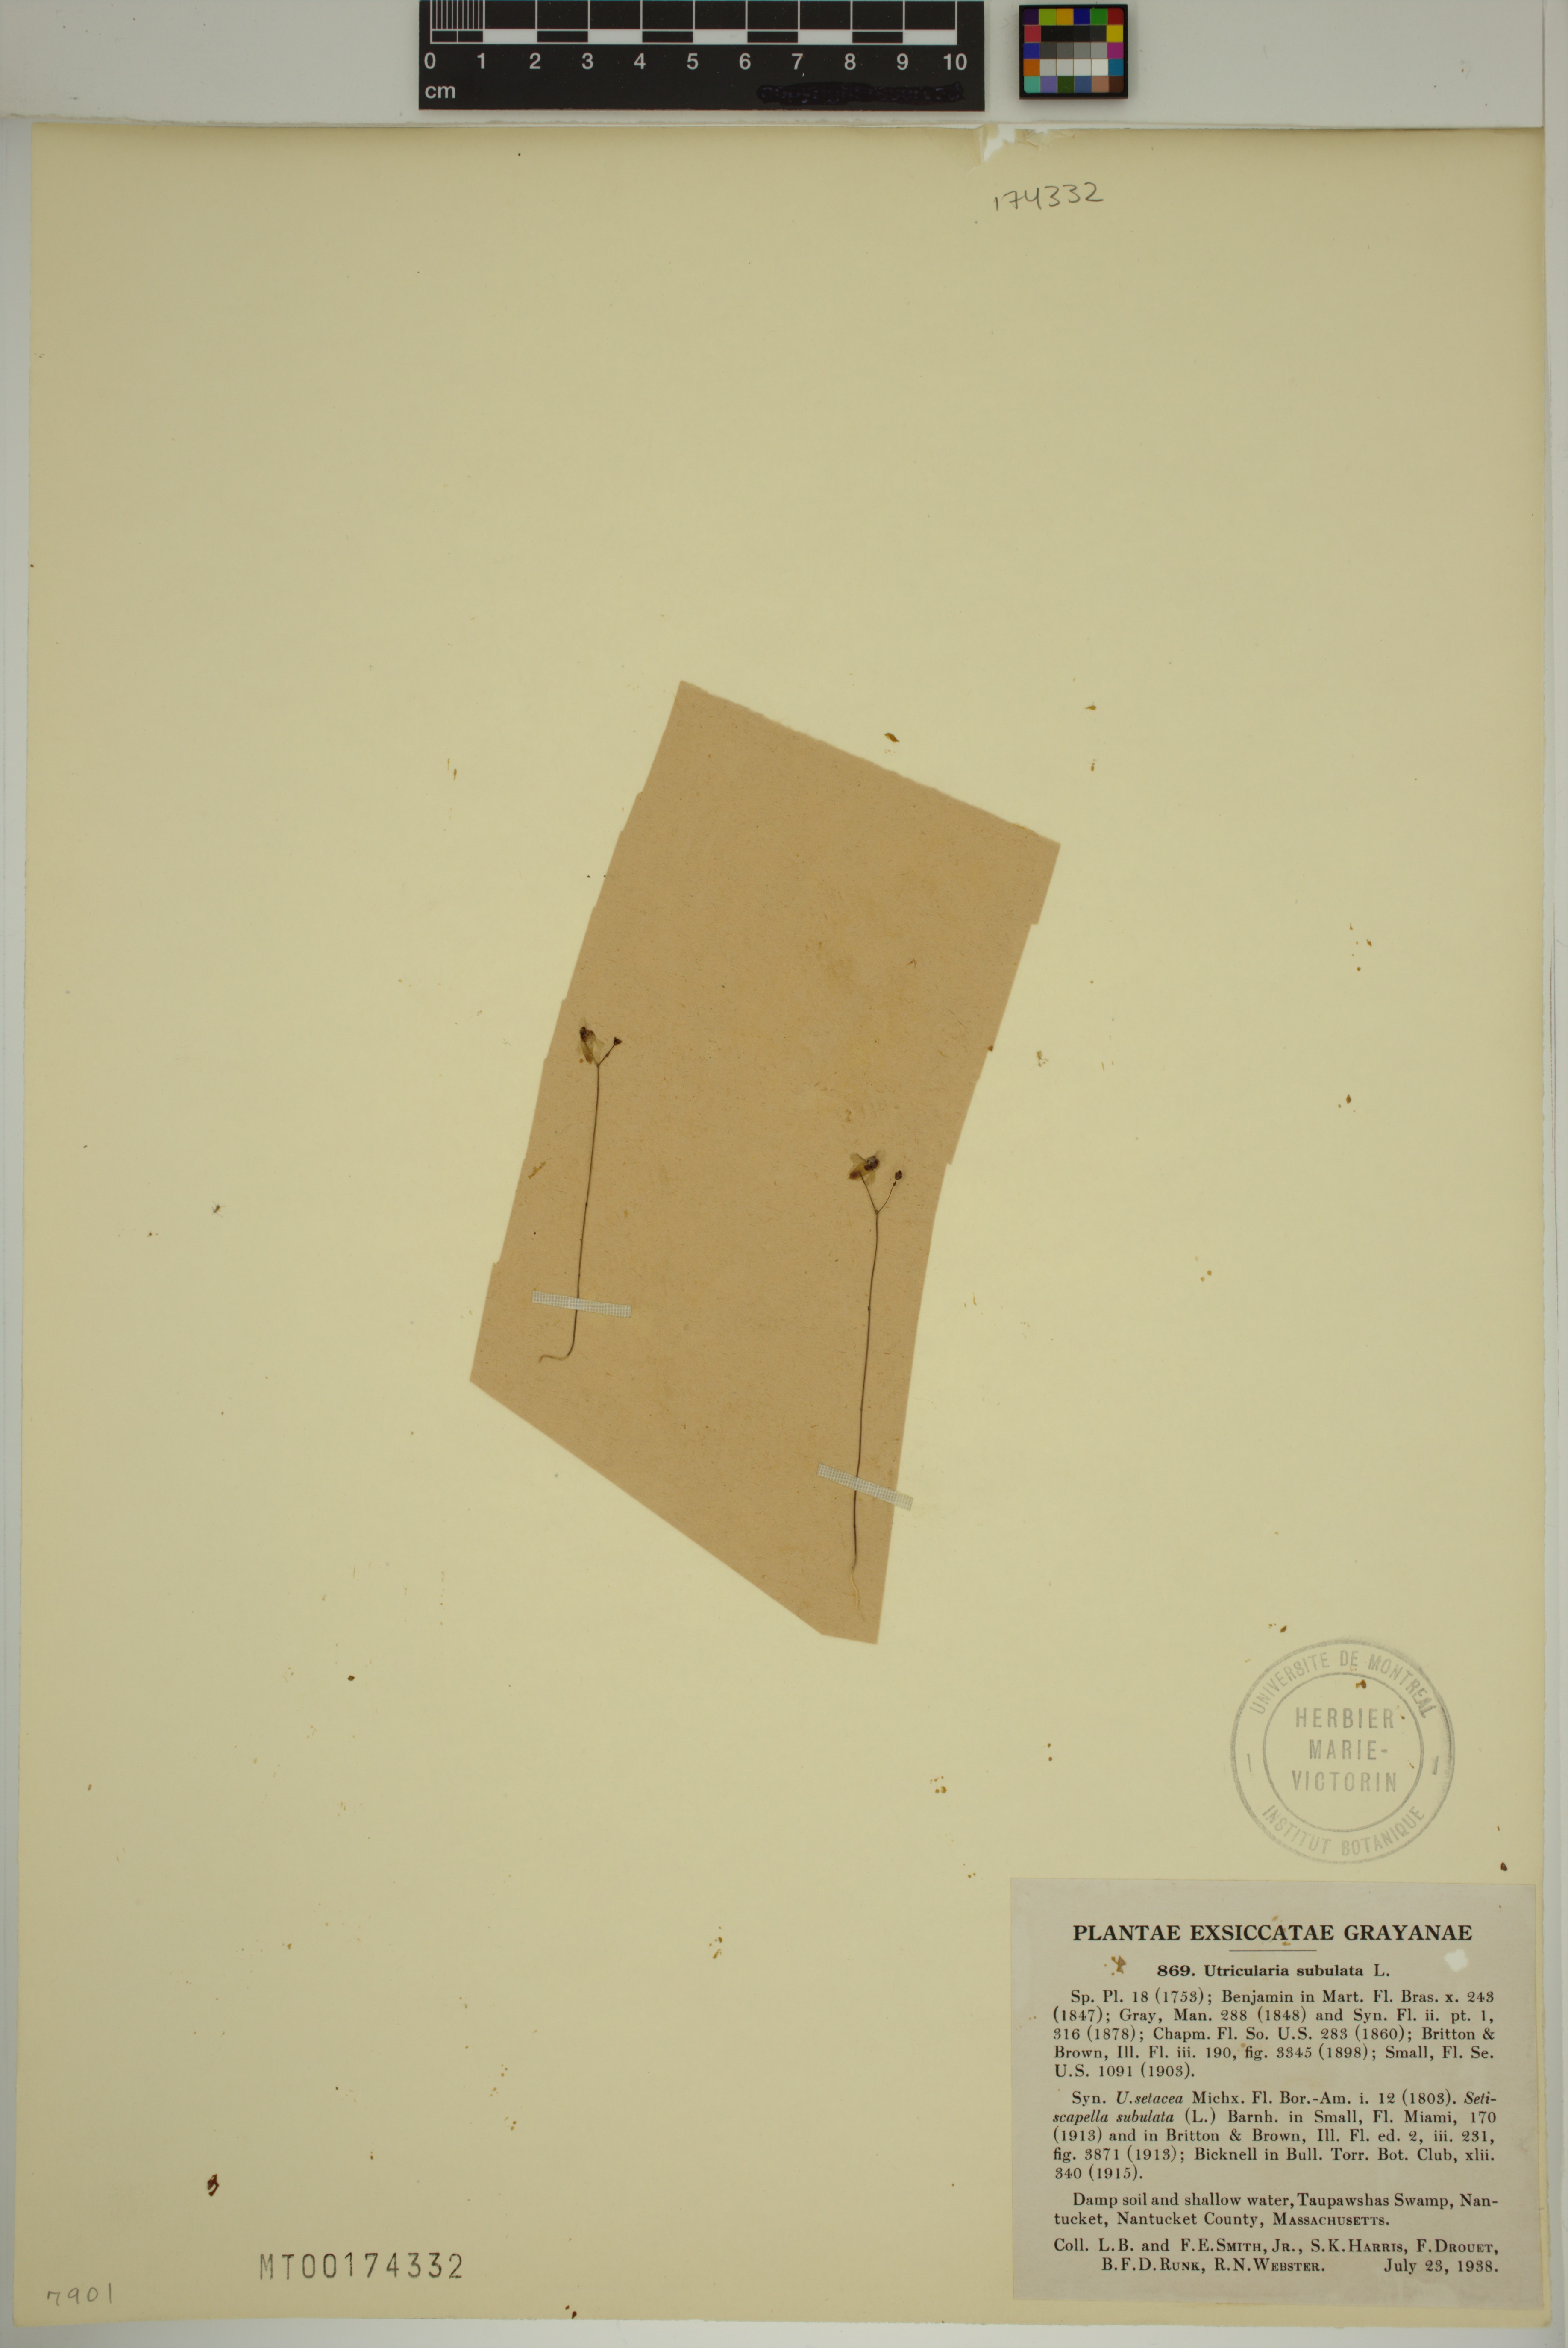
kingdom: Plantae
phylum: Tracheophyta
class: Magnoliopsida
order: Lamiales
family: Lentibulariaceae
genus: Utricularia
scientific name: Utricularia subulata
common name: Tiny bladderwort
